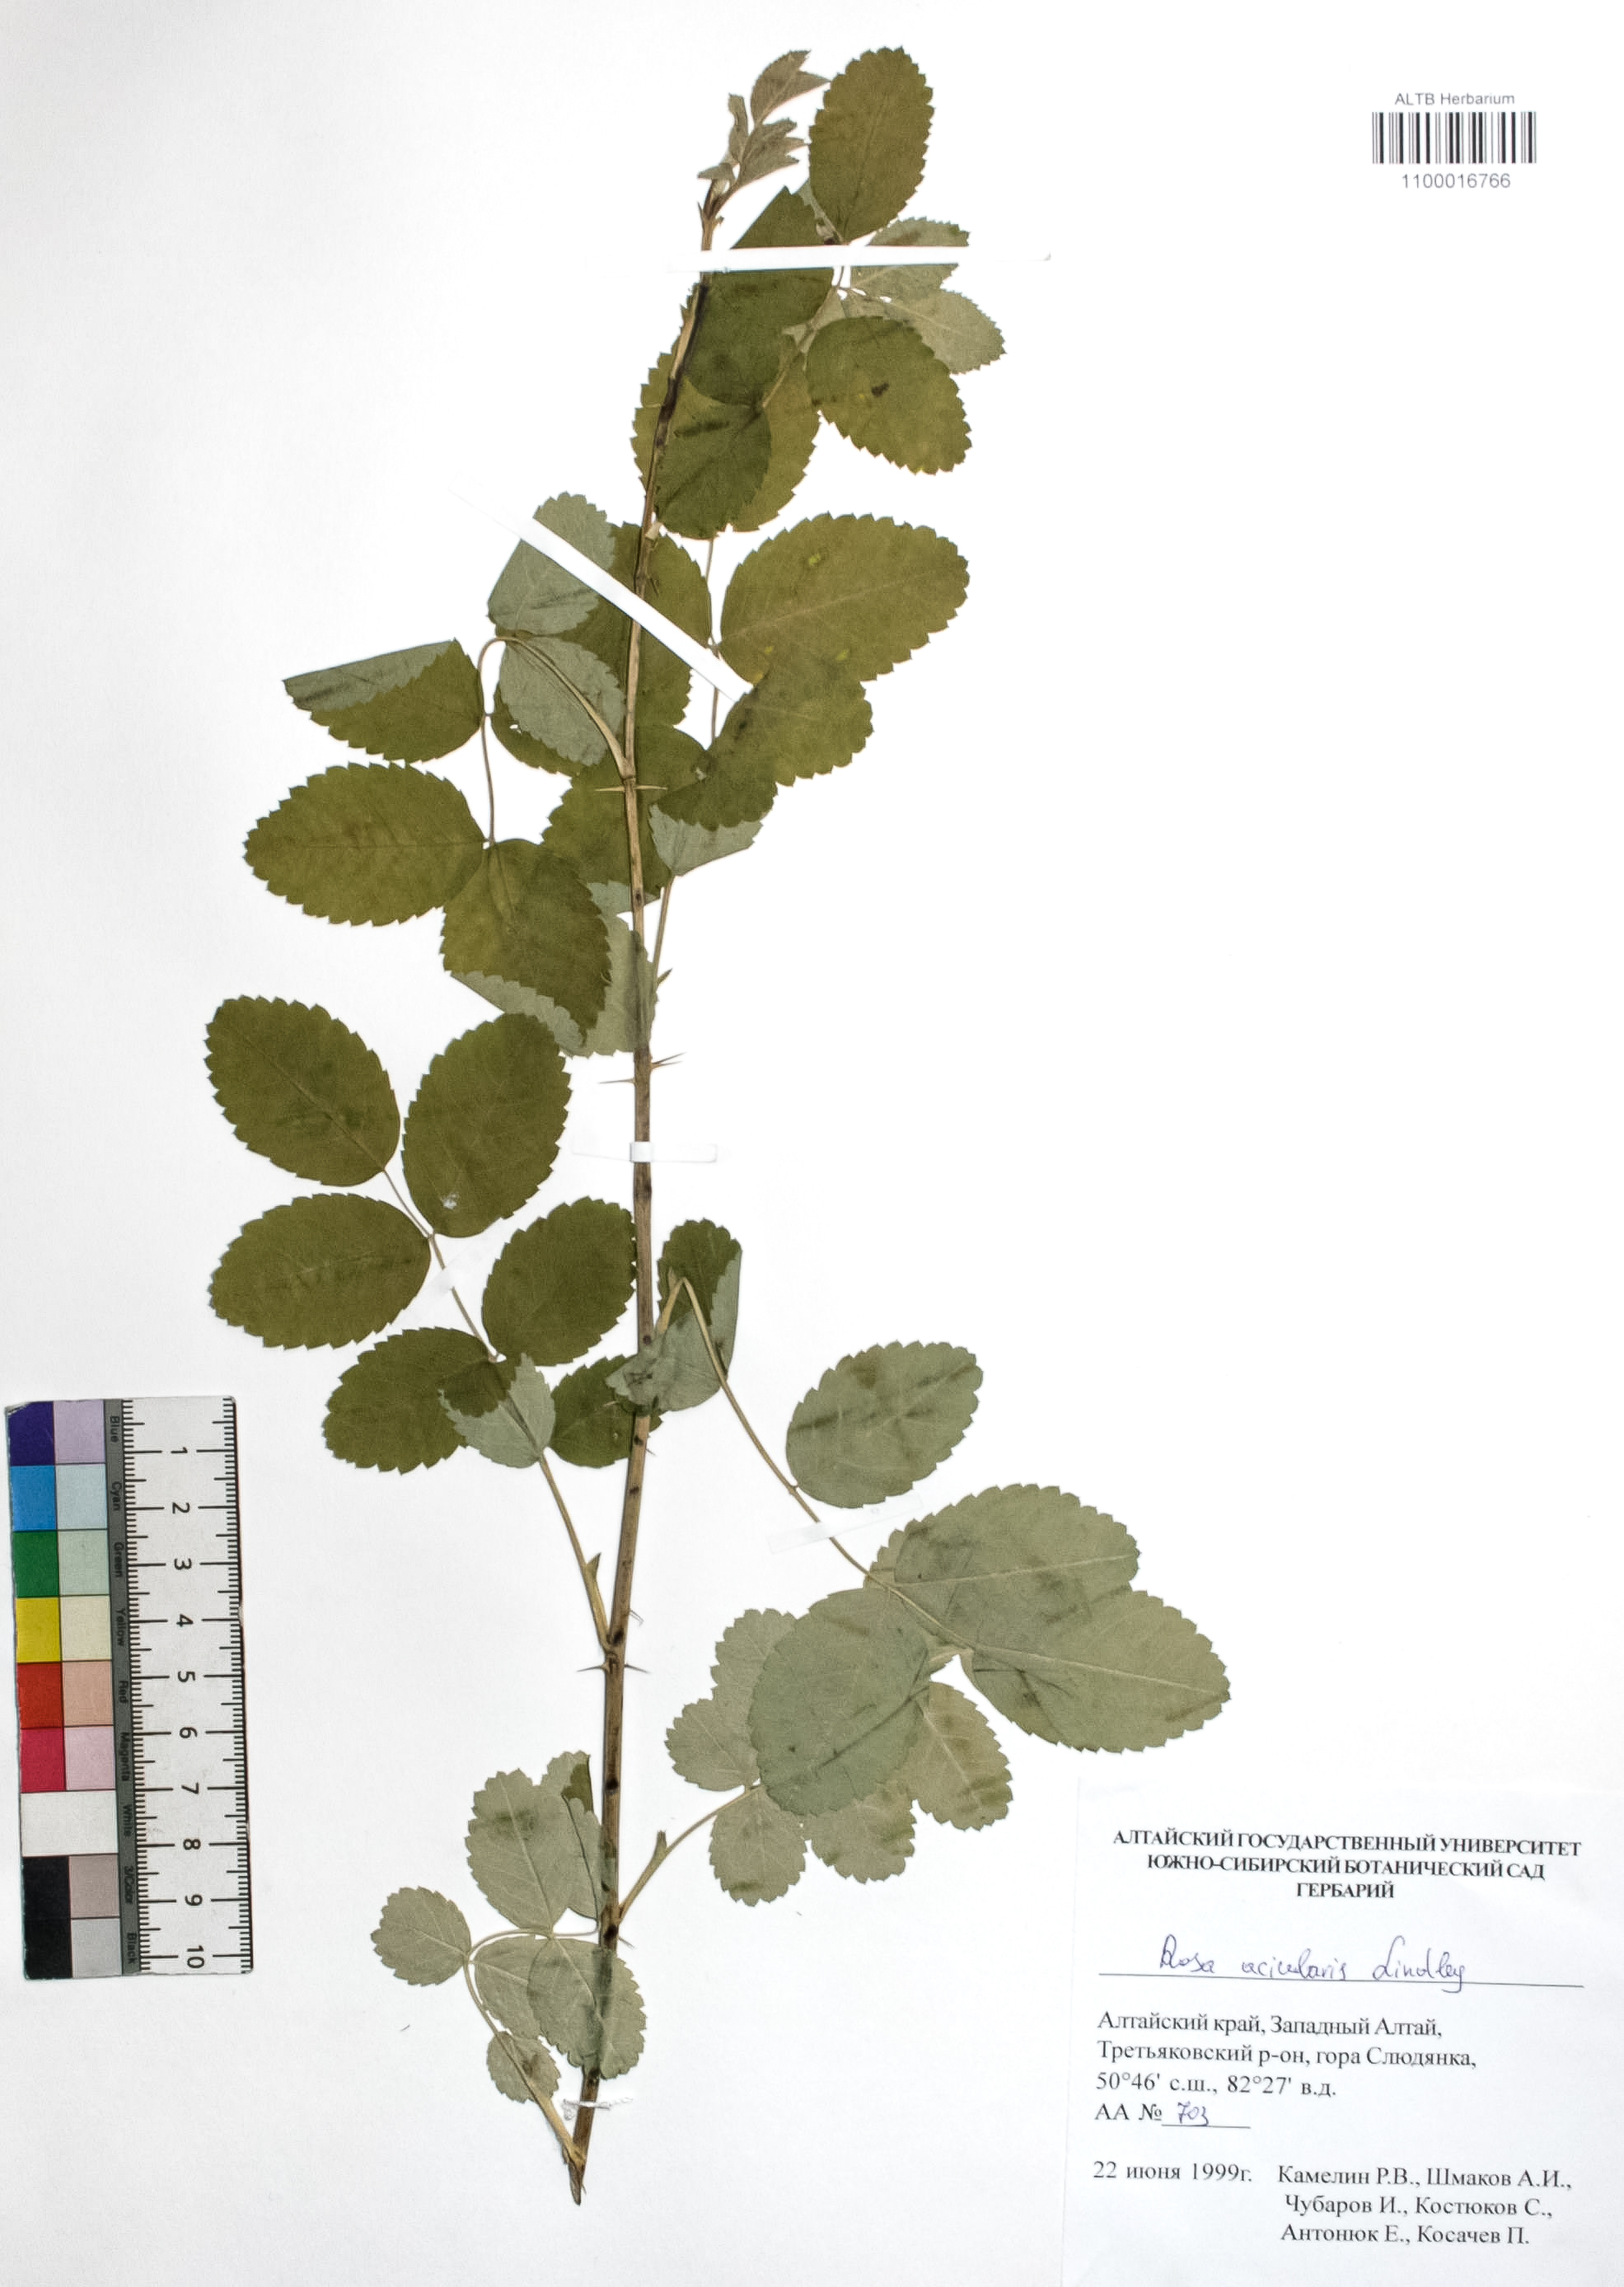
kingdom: Plantae
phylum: Tracheophyta
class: Magnoliopsida
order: Rosales
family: Rosaceae
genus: Rosa
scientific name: Rosa acicularis
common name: Prickly rose
